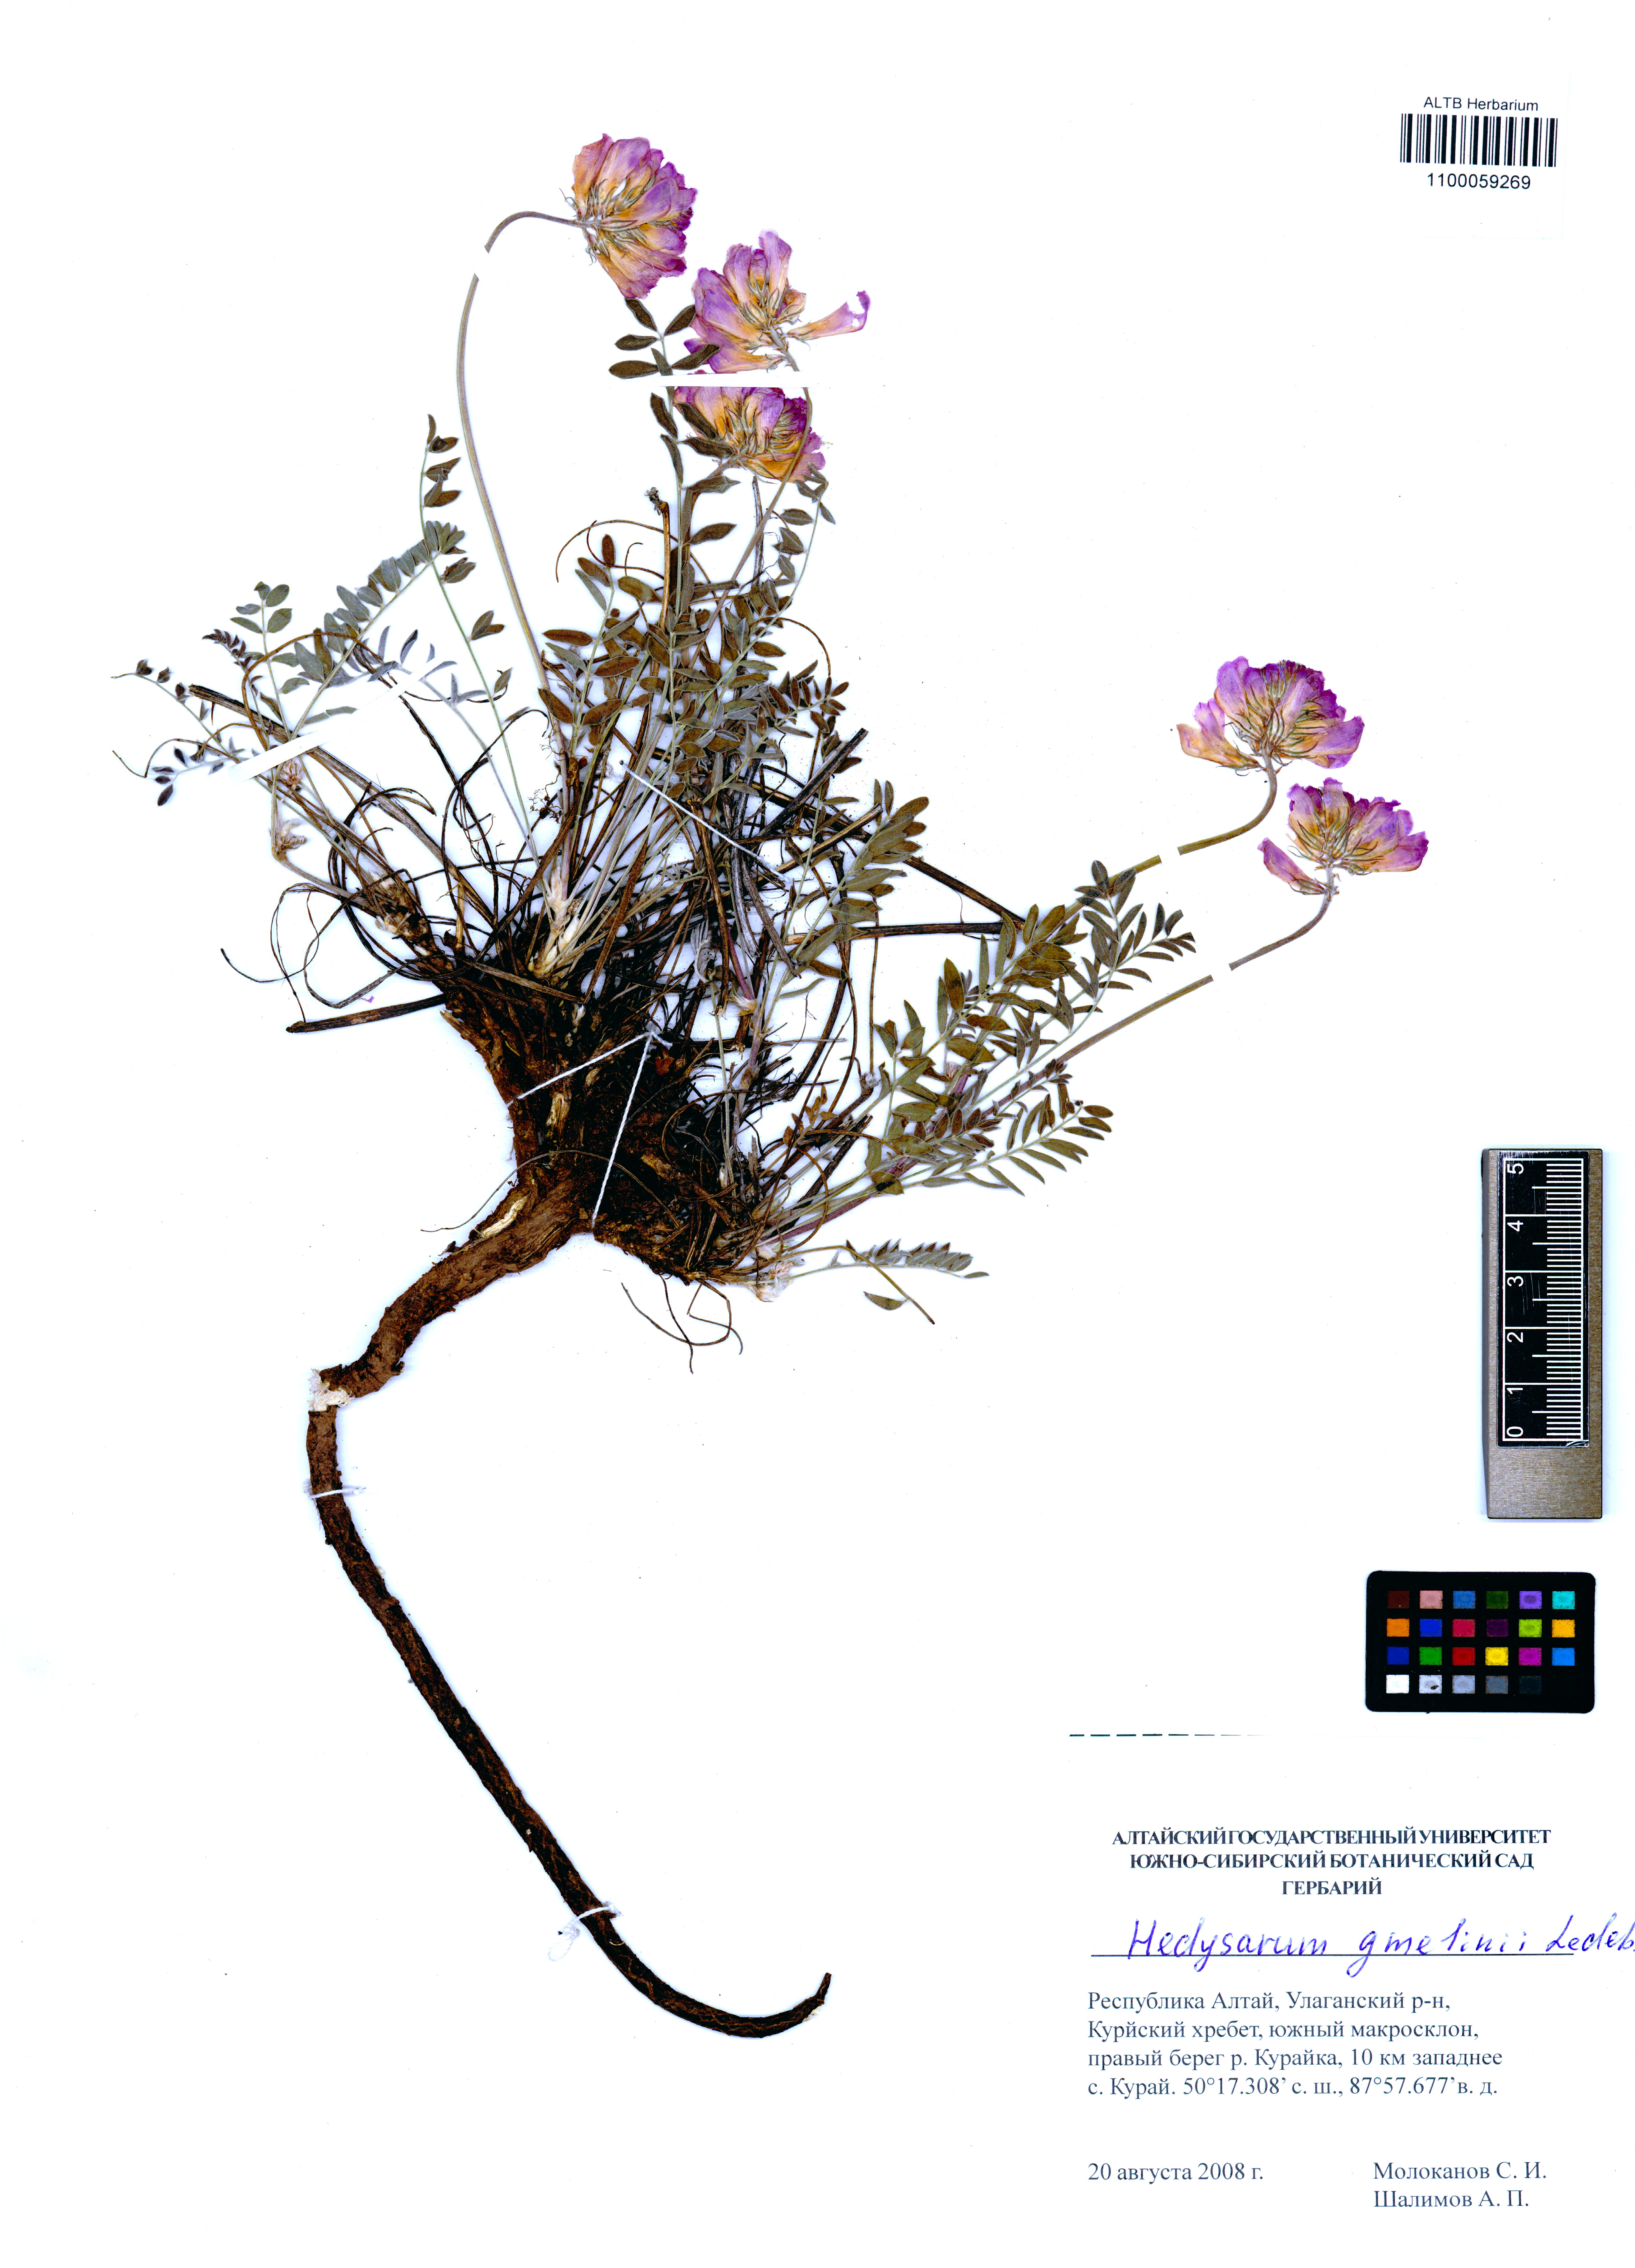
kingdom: Plantae
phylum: Tracheophyta
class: Magnoliopsida
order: Fabales
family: Fabaceae
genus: Hedysarum
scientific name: Hedysarum gmelinii
